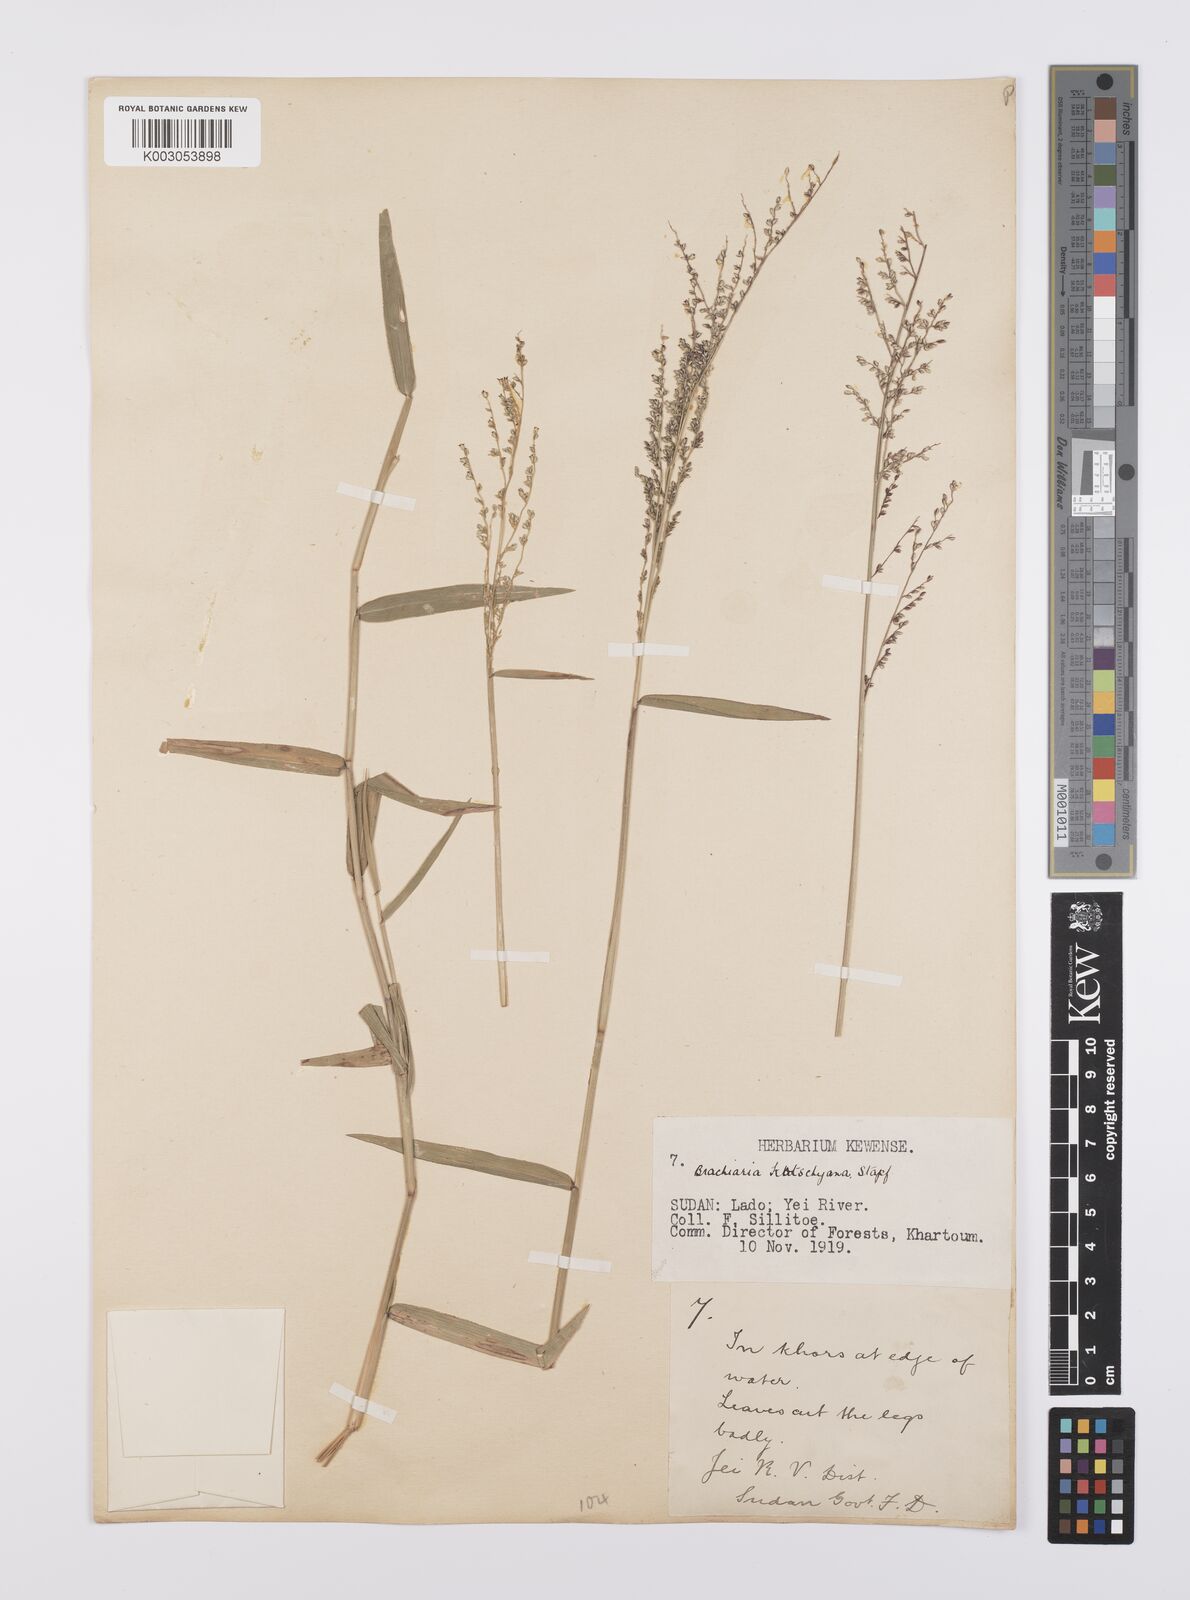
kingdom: Plantae
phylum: Tracheophyta
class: Liliopsida
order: Poales
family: Poaceae
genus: Urochloa
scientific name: Urochloa comata
